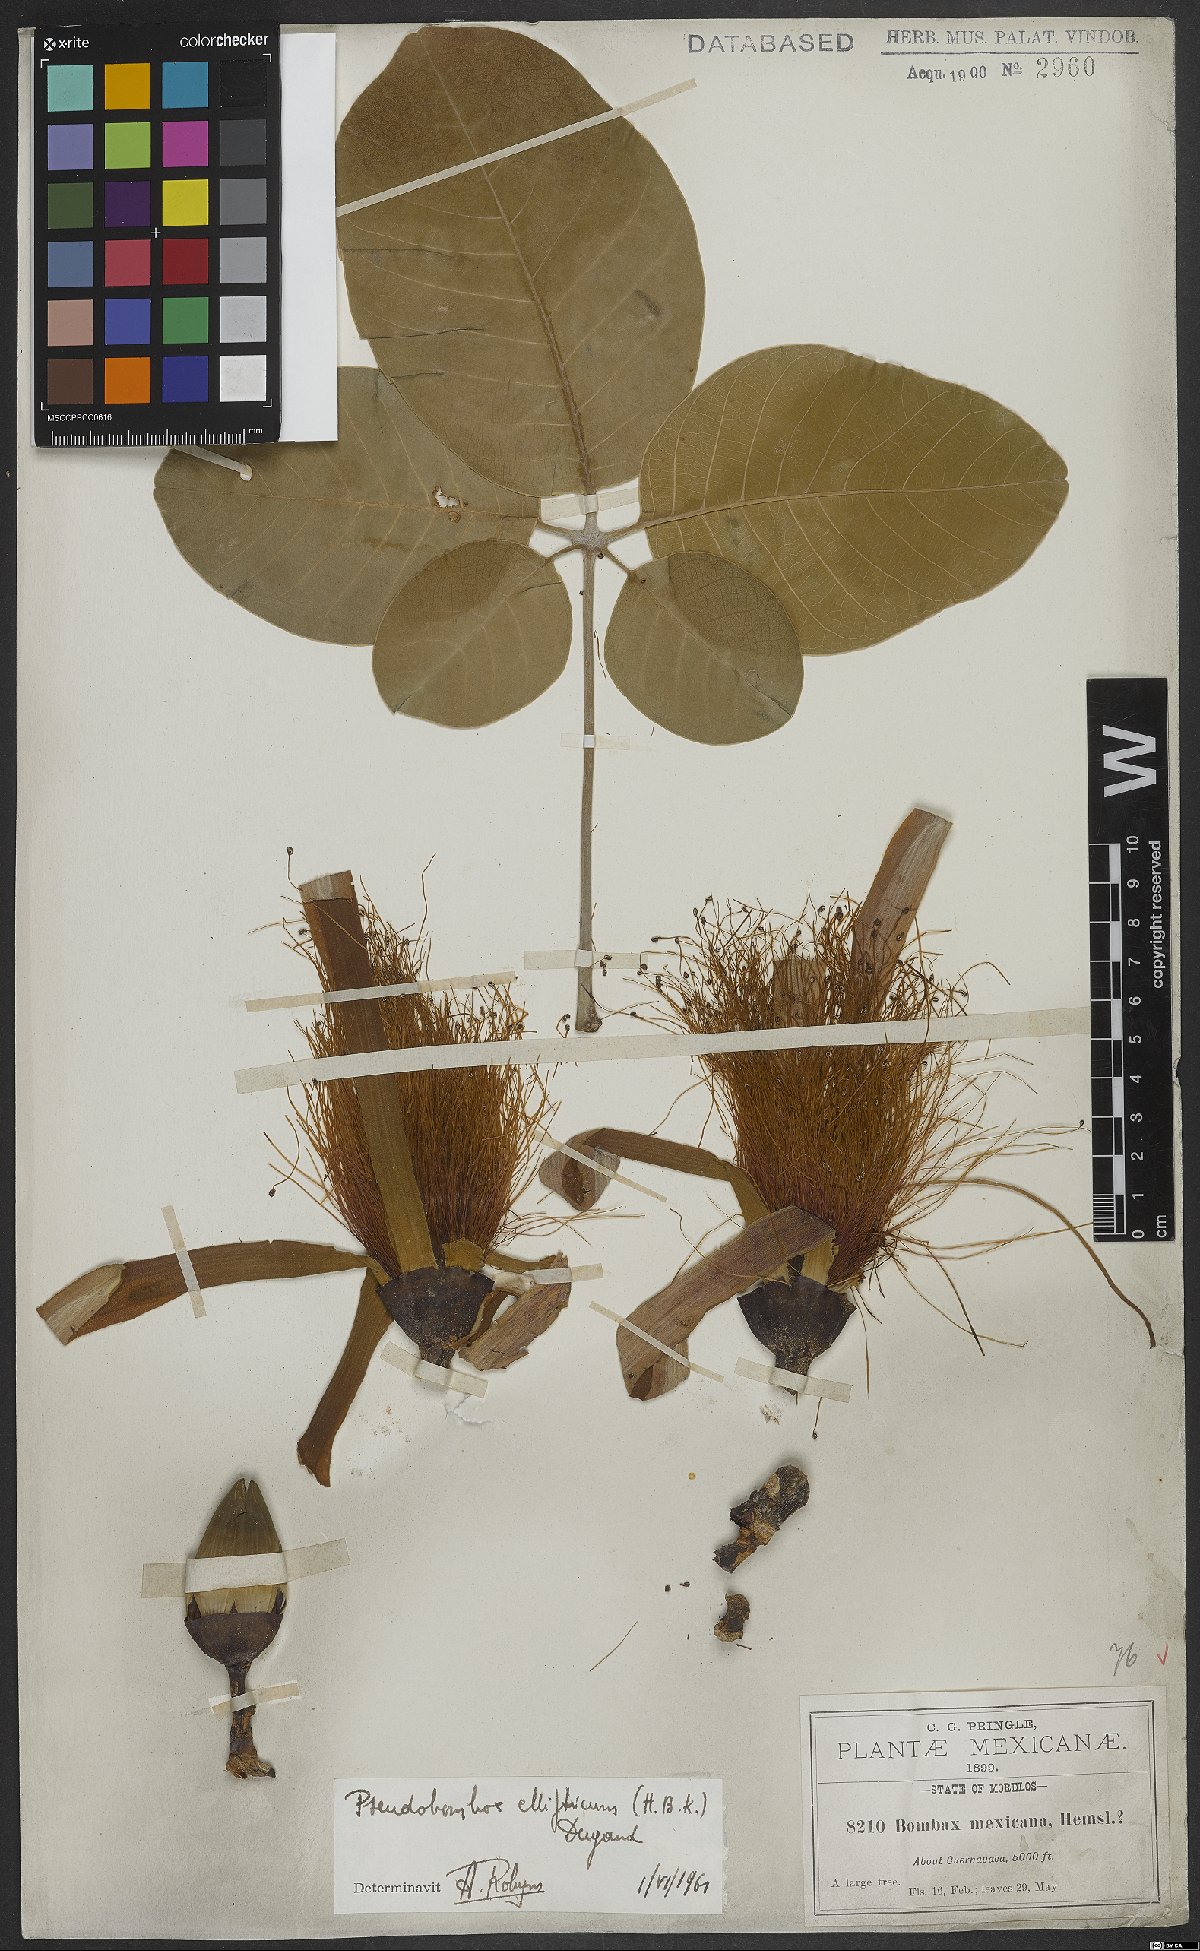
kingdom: Plantae
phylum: Tracheophyta
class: Magnoliopsida
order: Malvales
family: Malvaceae
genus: Pseudobombax
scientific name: Pseudobombax ellipticum
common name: Shaving-brush-tree
